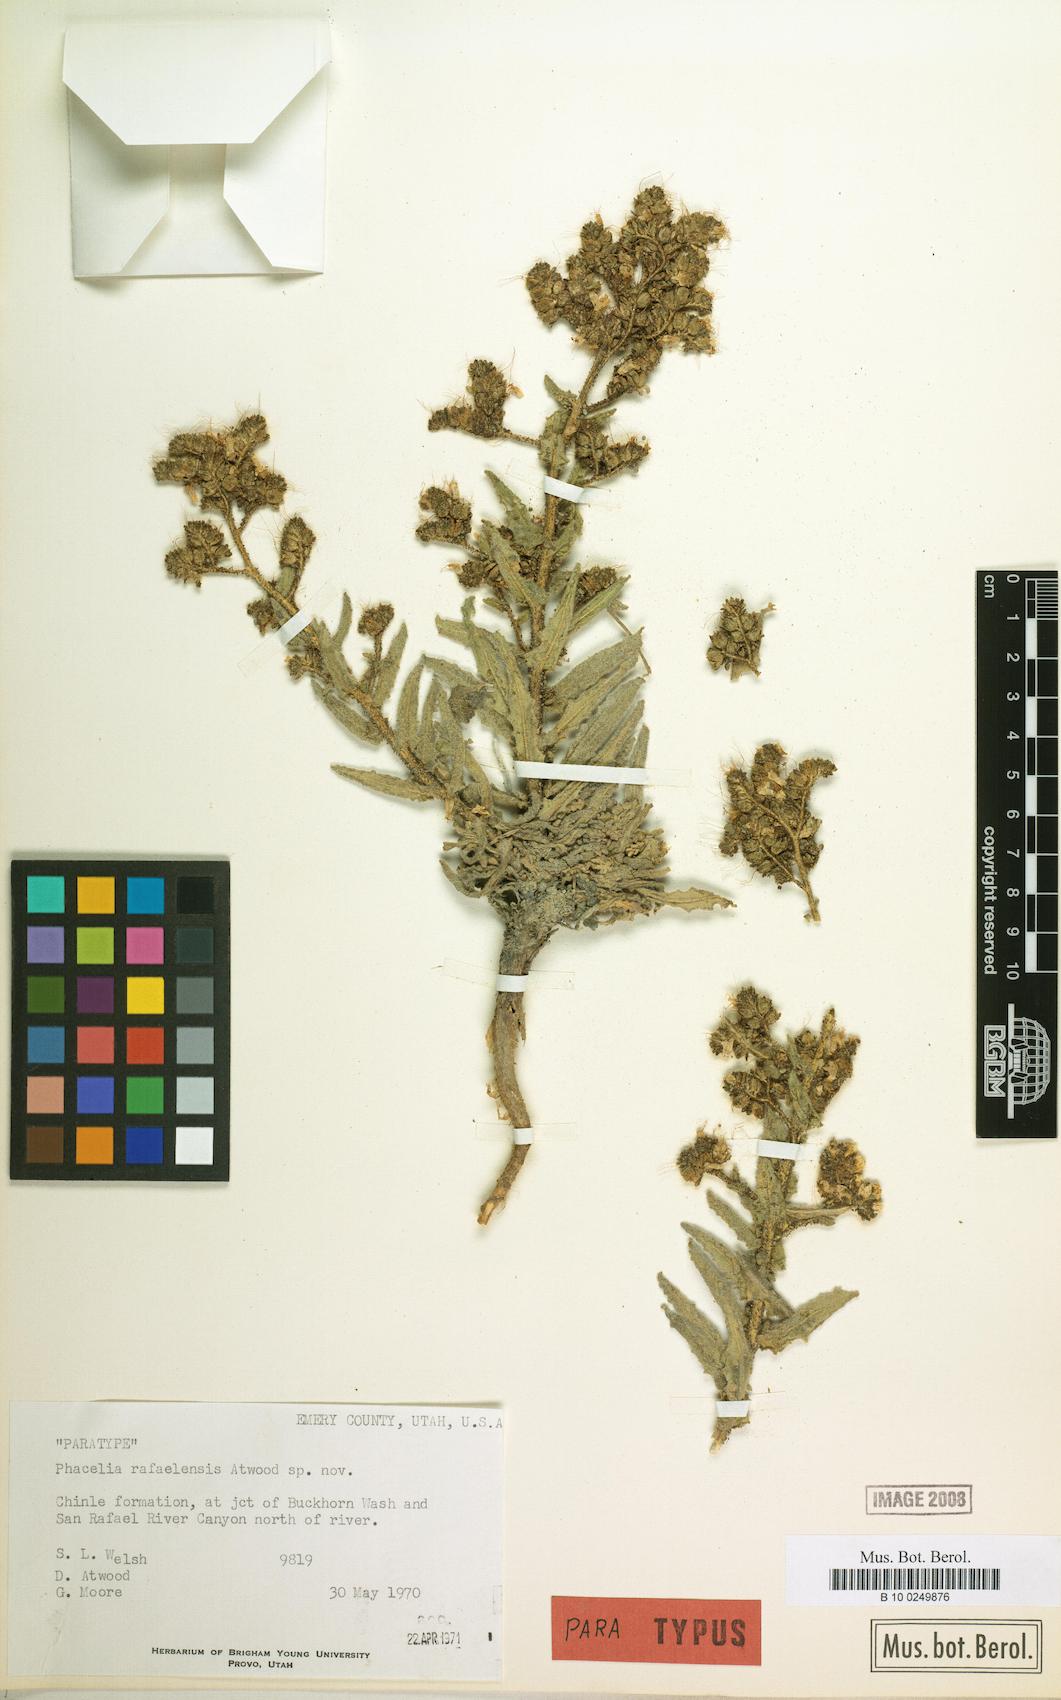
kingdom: Plantae
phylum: Tracheophyta
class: Magnoliopsida
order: Boraginales
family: Hydrophyllaceae
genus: Phacelia
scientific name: Phacelia rafaelensis
